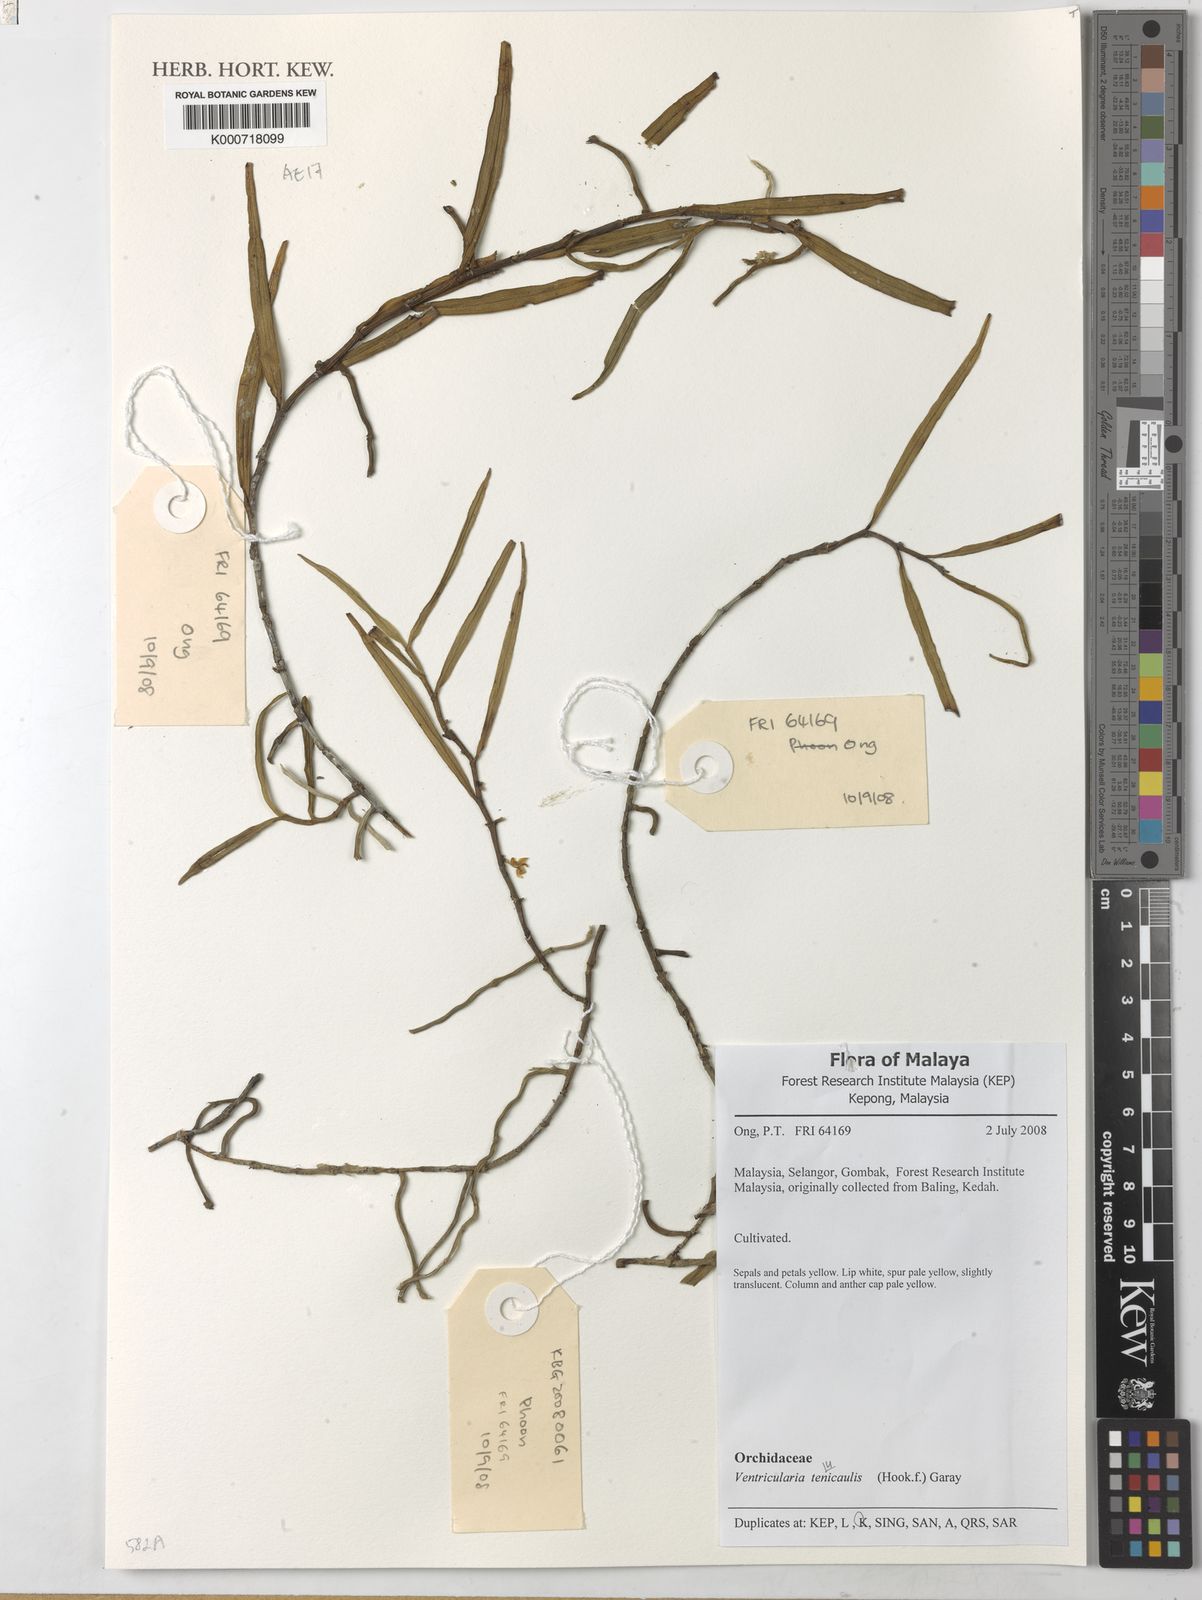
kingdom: Plantae
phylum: Tracheophyta
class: Liliopsida
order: Asparagales
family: Orchidaceae
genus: Trichoglottis
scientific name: Trichoglottis ventricularis
